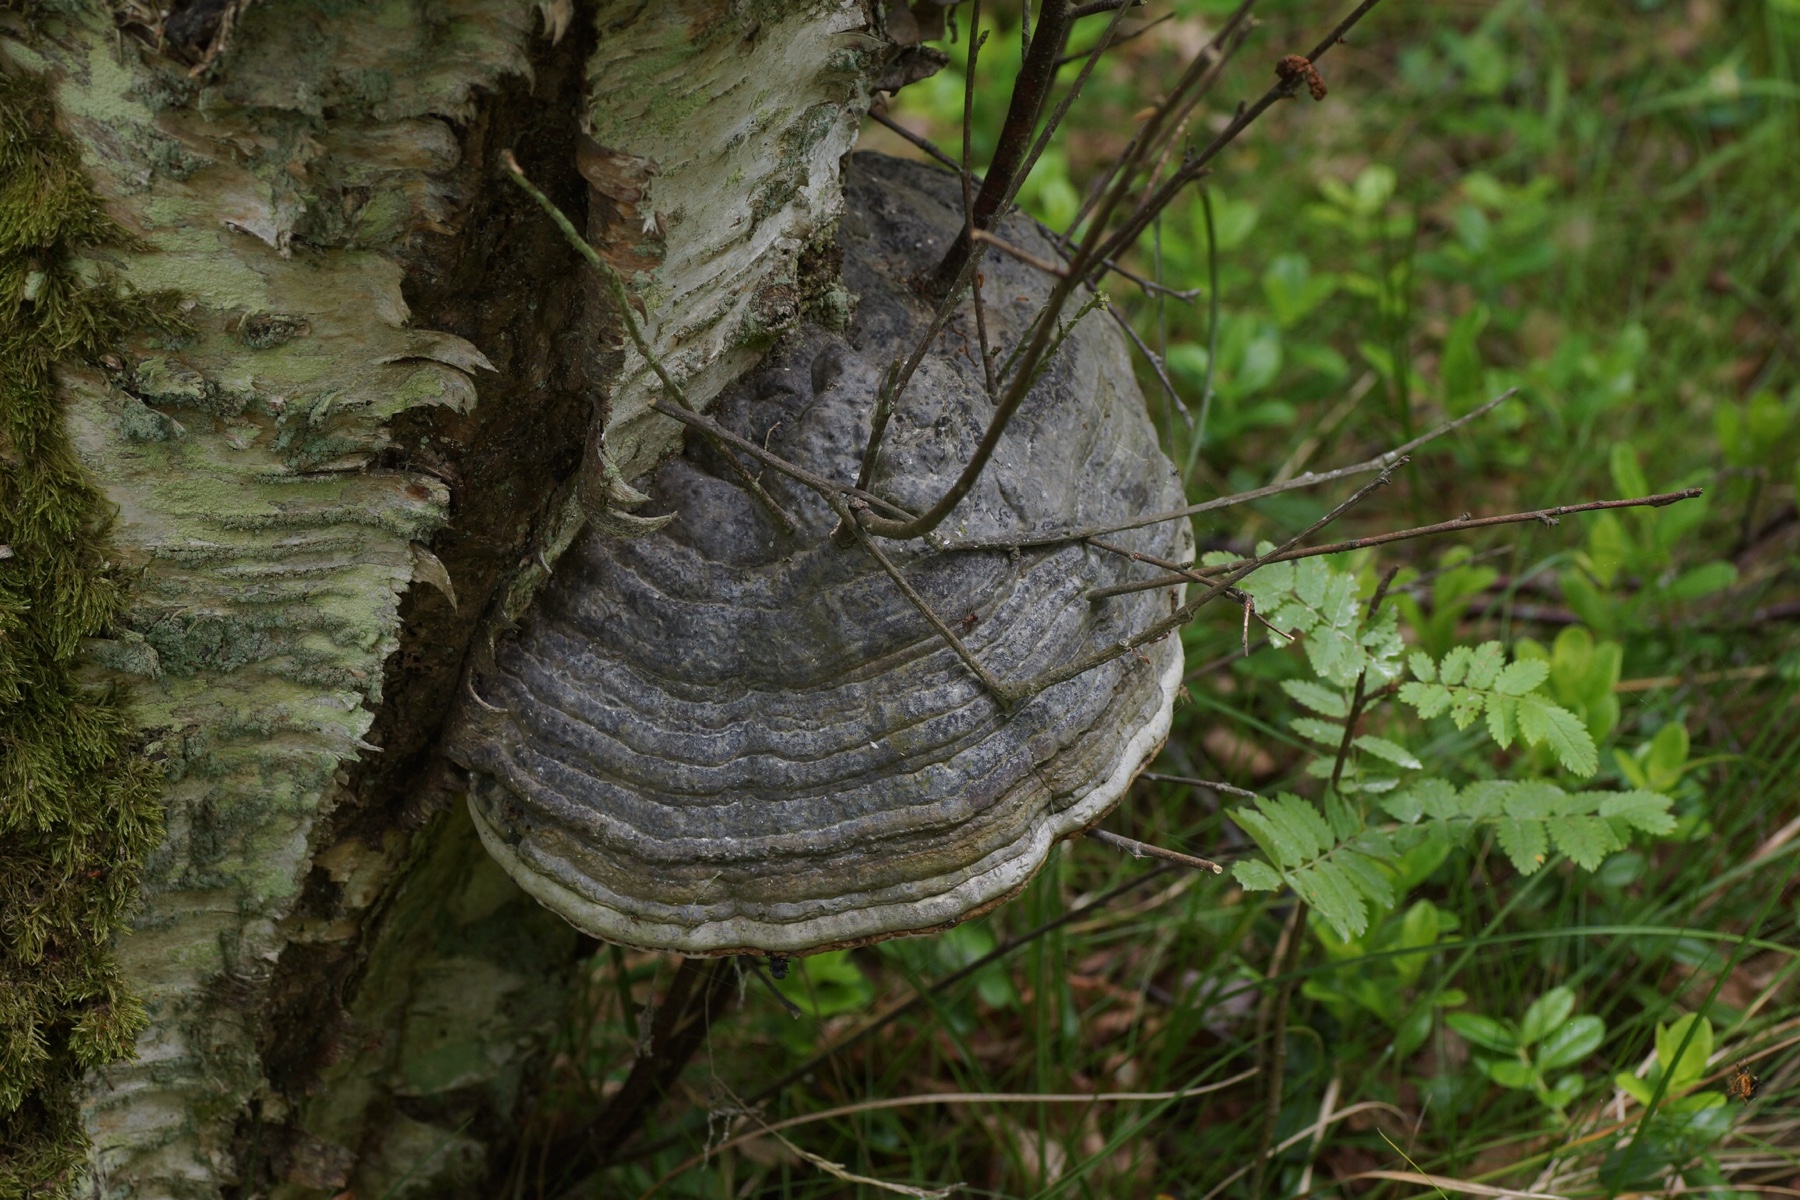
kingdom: Fungi
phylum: Basidiomycota
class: Agaricomycetes
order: Polyporales
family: Polyporaceae
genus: Fomes
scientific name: Fomes fomentarius
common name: tøndersvamp
